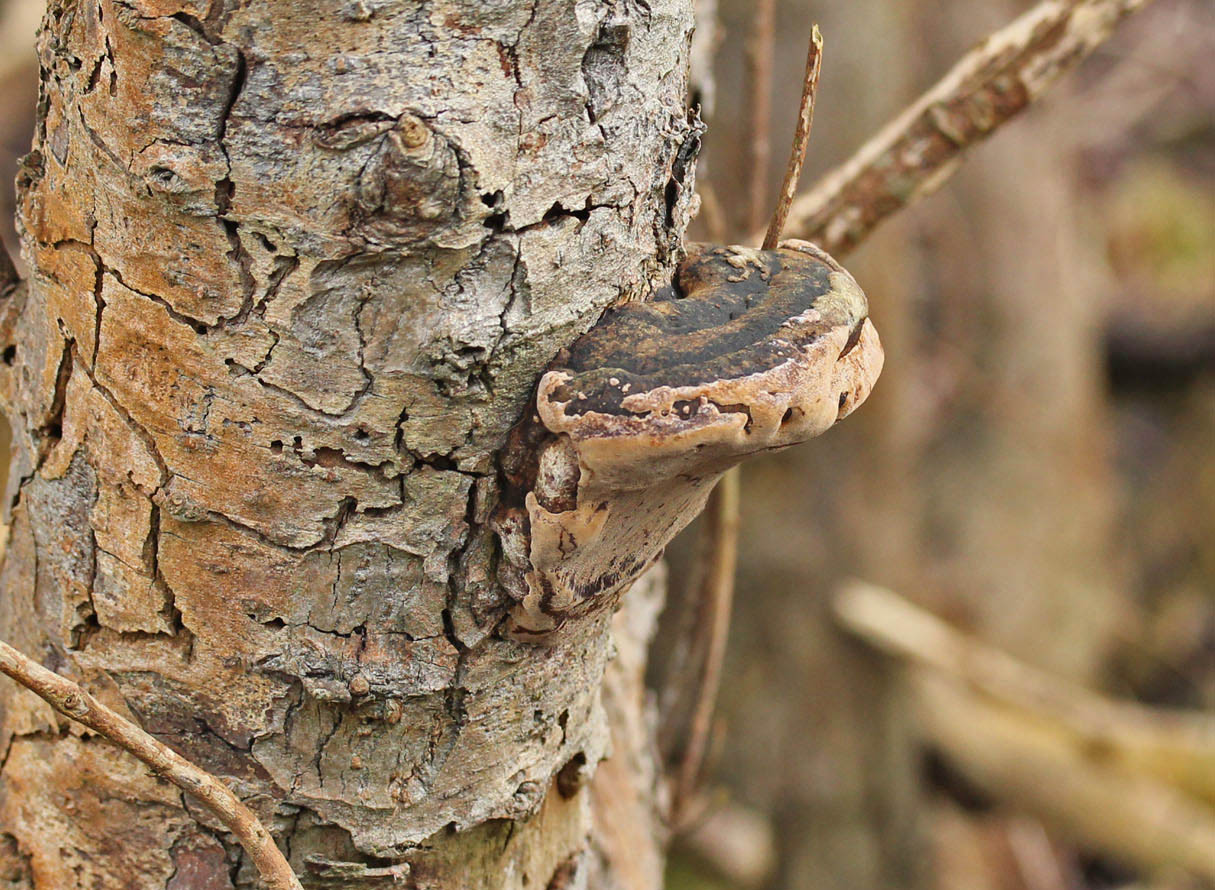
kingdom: Fungi
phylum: Basidiomycota
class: Agaricomycetes
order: Hymenochaetales
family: Hymenochaetaceae
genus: Phellinus
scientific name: Phellinus igniarius
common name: almindelig ildporesvamp
